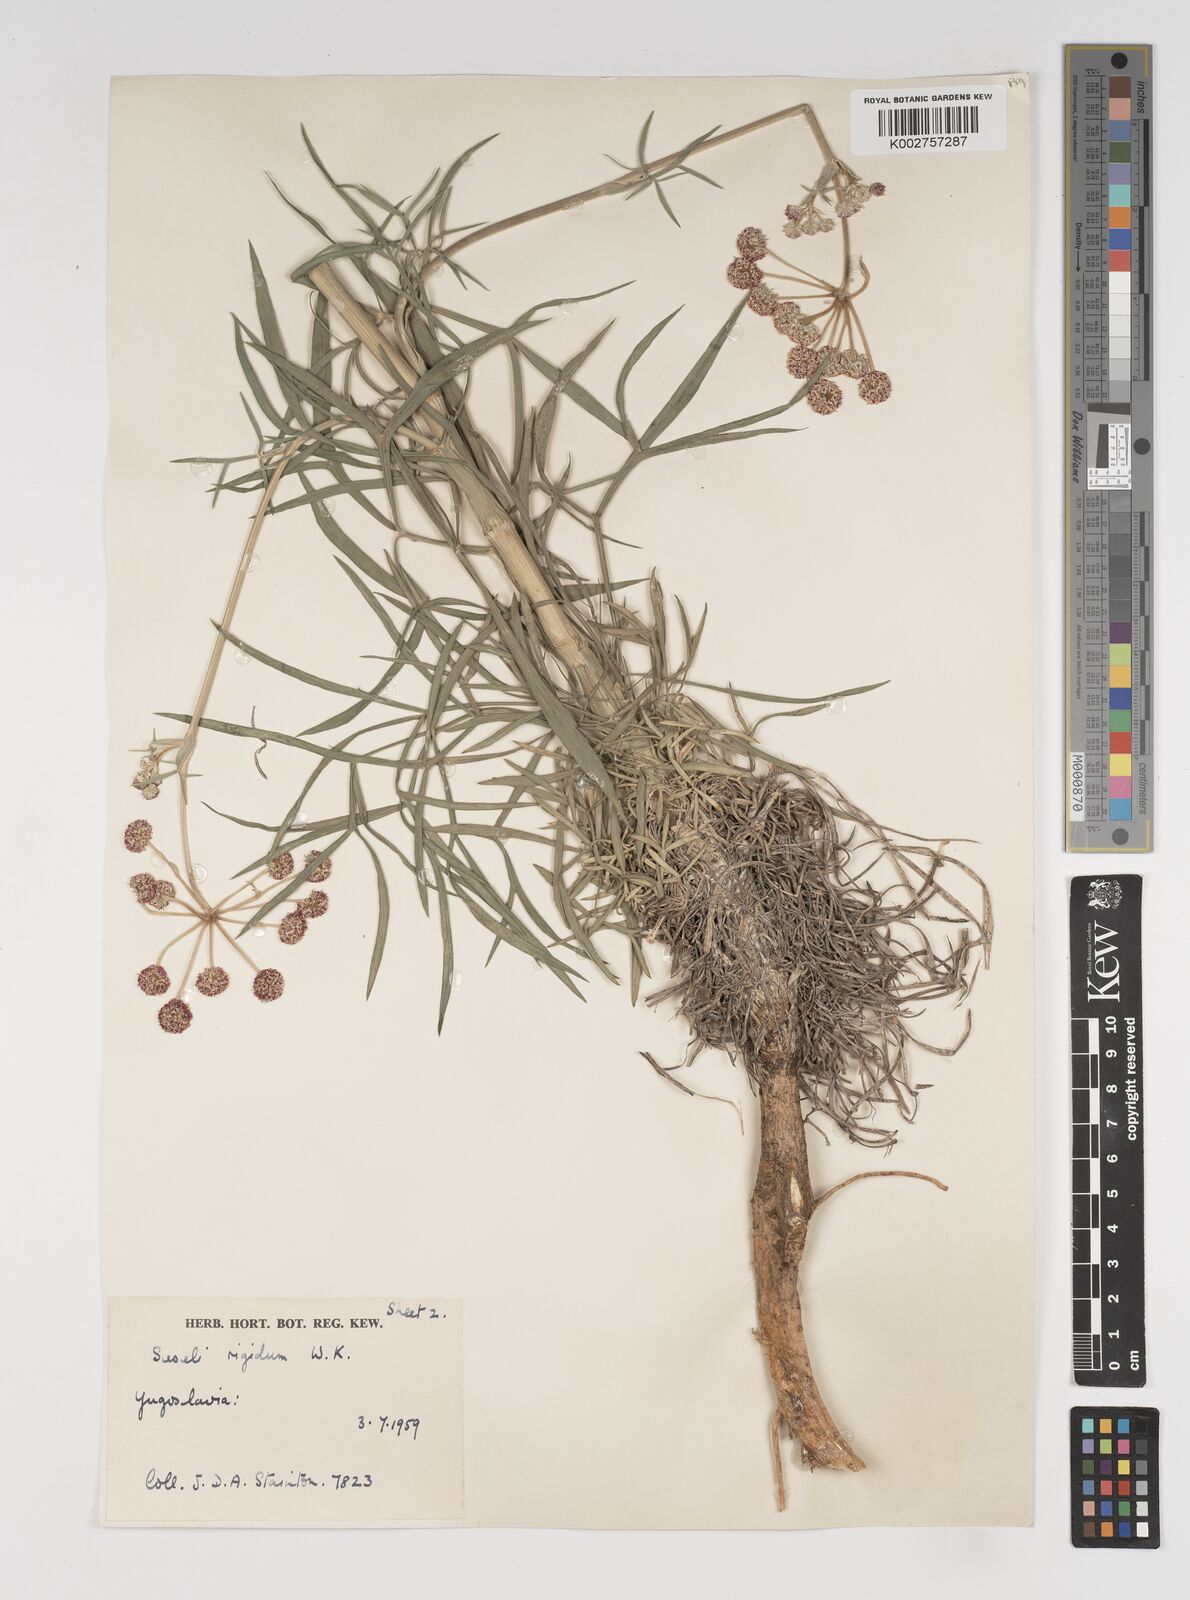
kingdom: Plantae
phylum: Tracheophyta
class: Magnoliopsida
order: Apiales
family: Apiaceae
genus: Seseli
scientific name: Seseli rigidum
